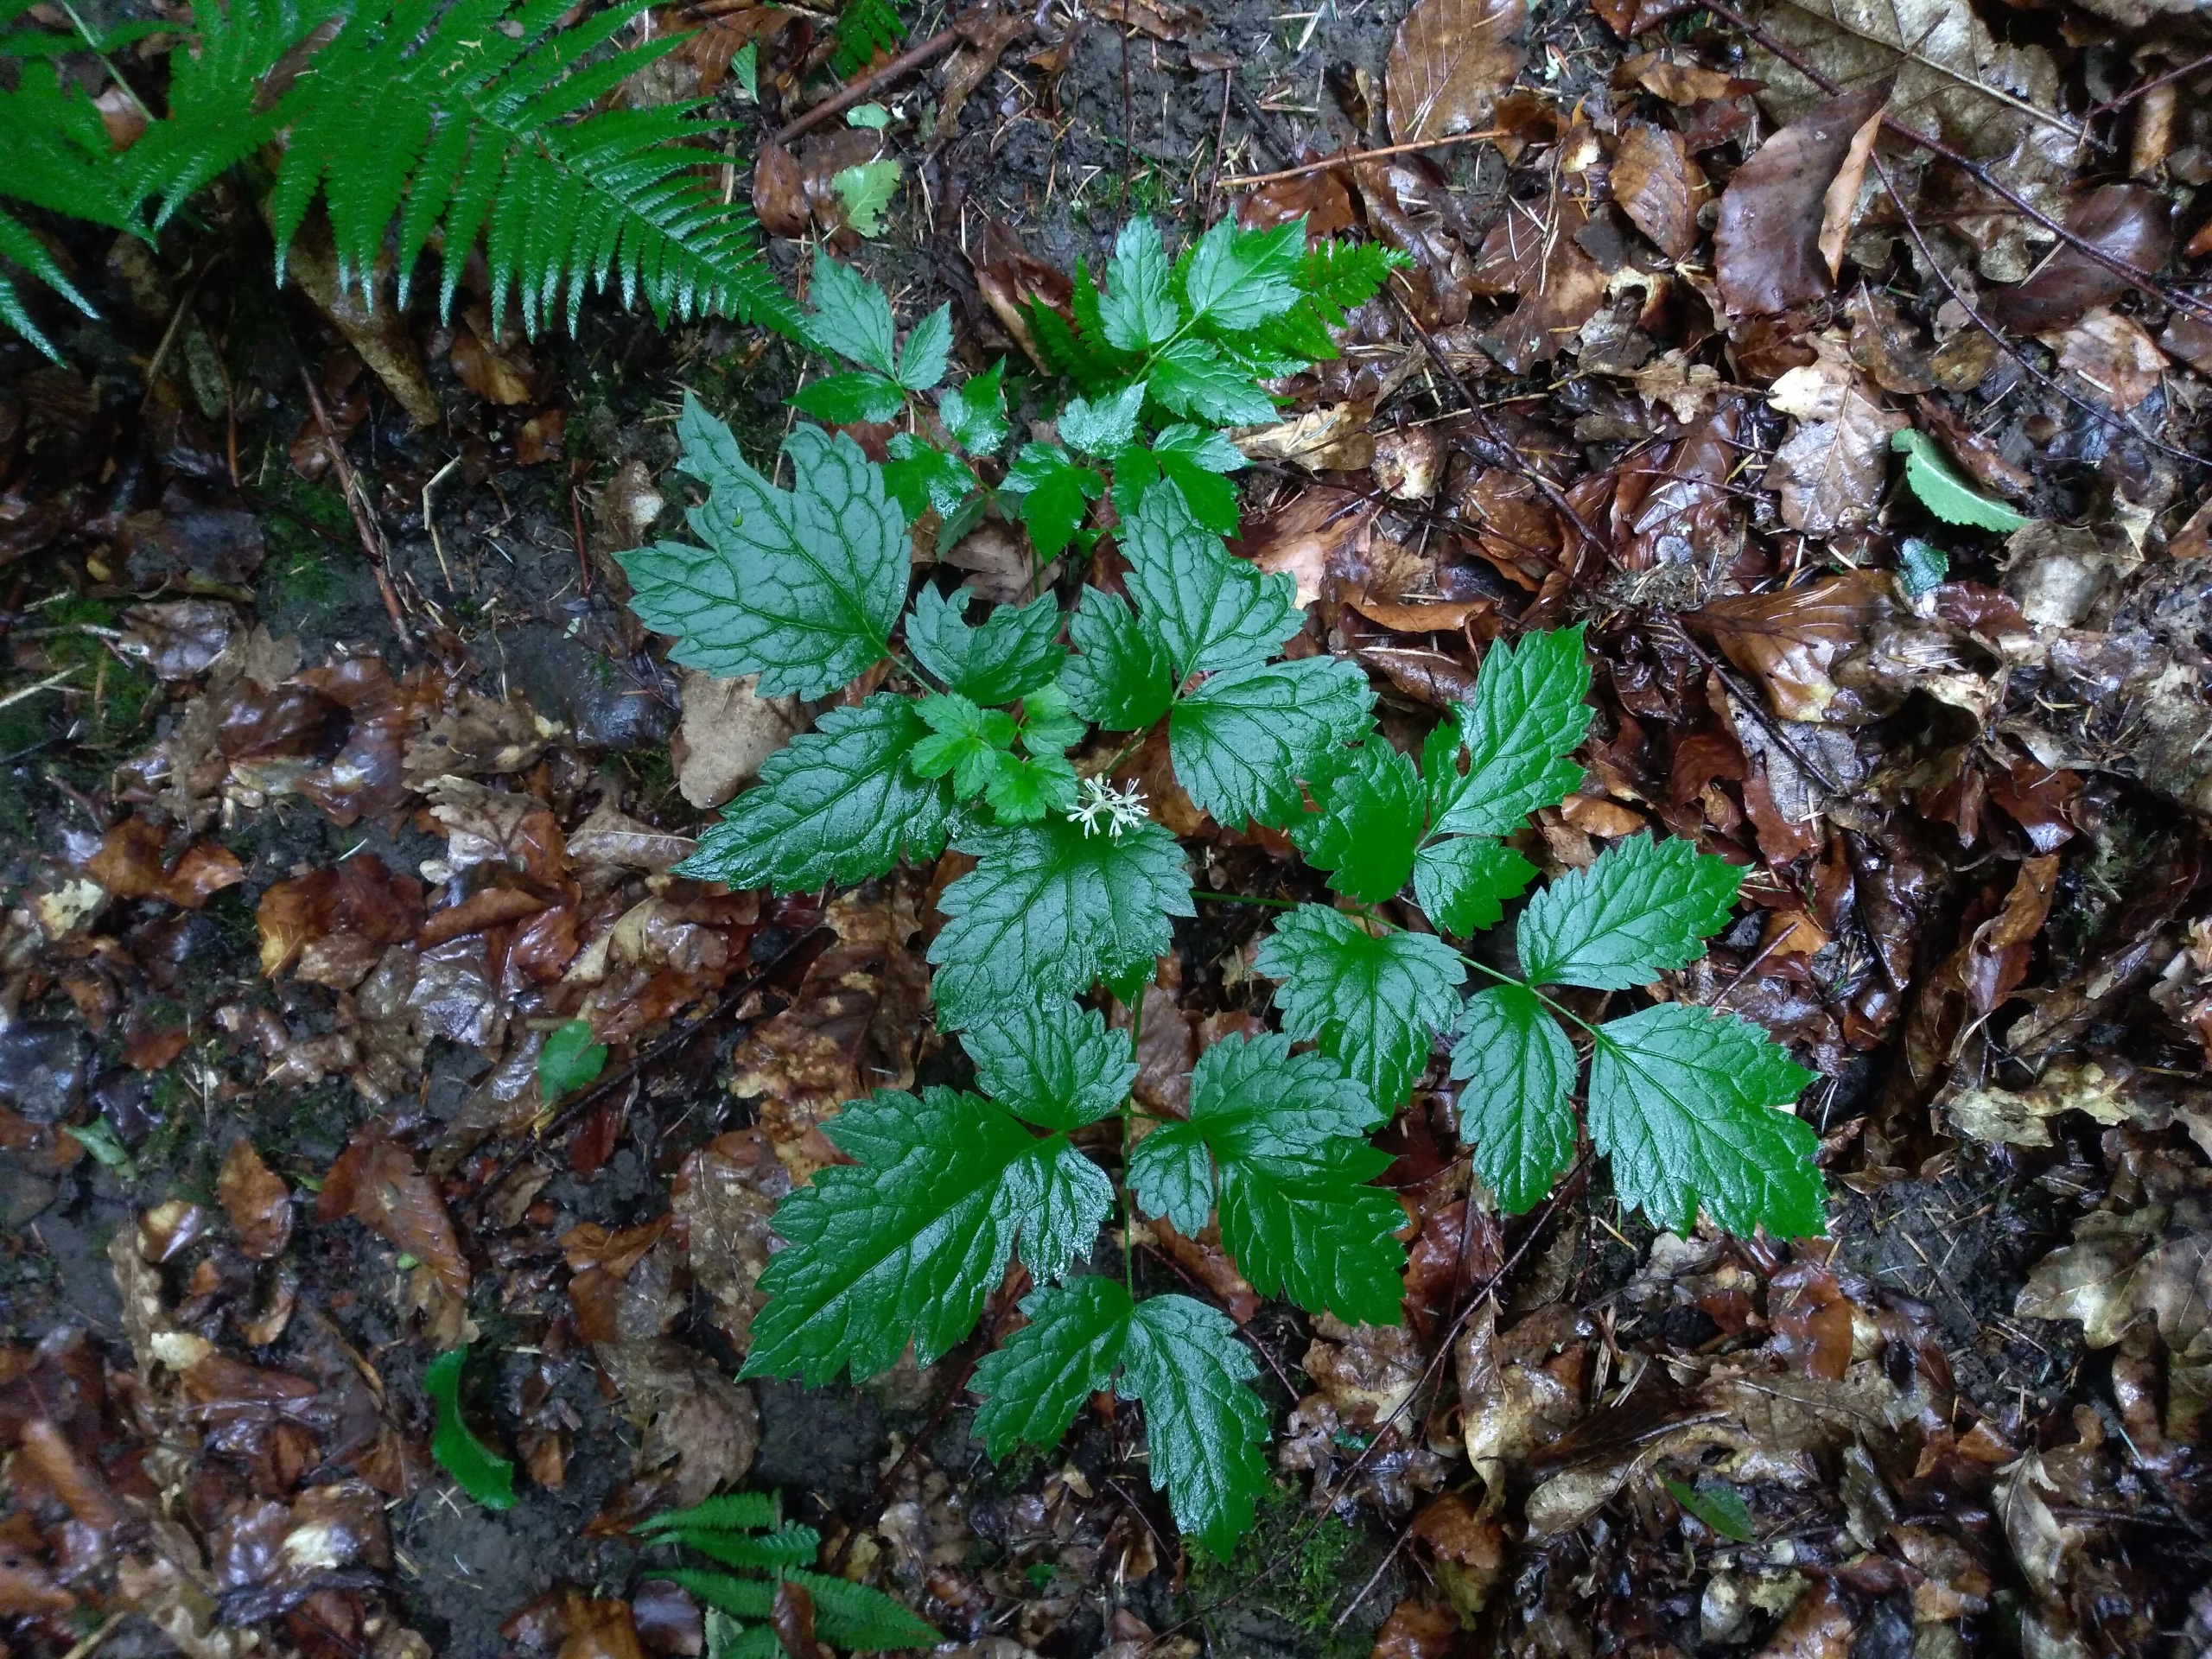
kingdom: Plantae
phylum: Tracheophyta
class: Magnoliopsida
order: Ranunculales
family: Ranunculaceae
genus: Actaea
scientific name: Actaea spicata
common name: Druemunke
